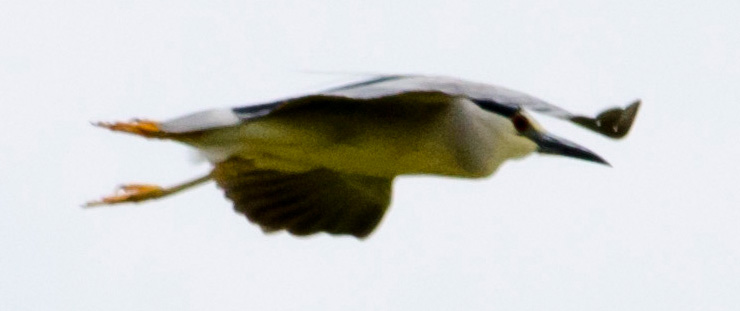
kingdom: Animalia
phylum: Chordata
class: Aves
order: Pelecaniformes
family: Ardeidae
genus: Nycticorax
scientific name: Nycticorax nycticorax
